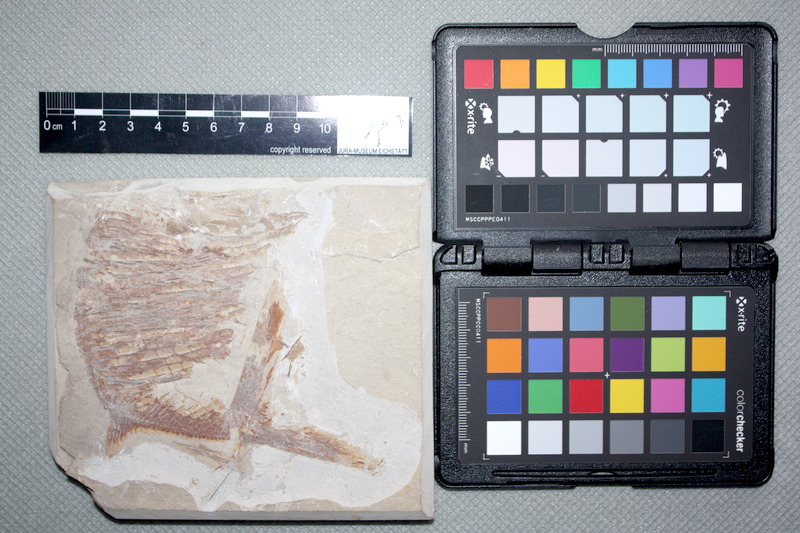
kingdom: Animalia
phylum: Chordata
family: Gyrodontidae
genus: Gyrodus
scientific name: Gyrodus hexagonus
